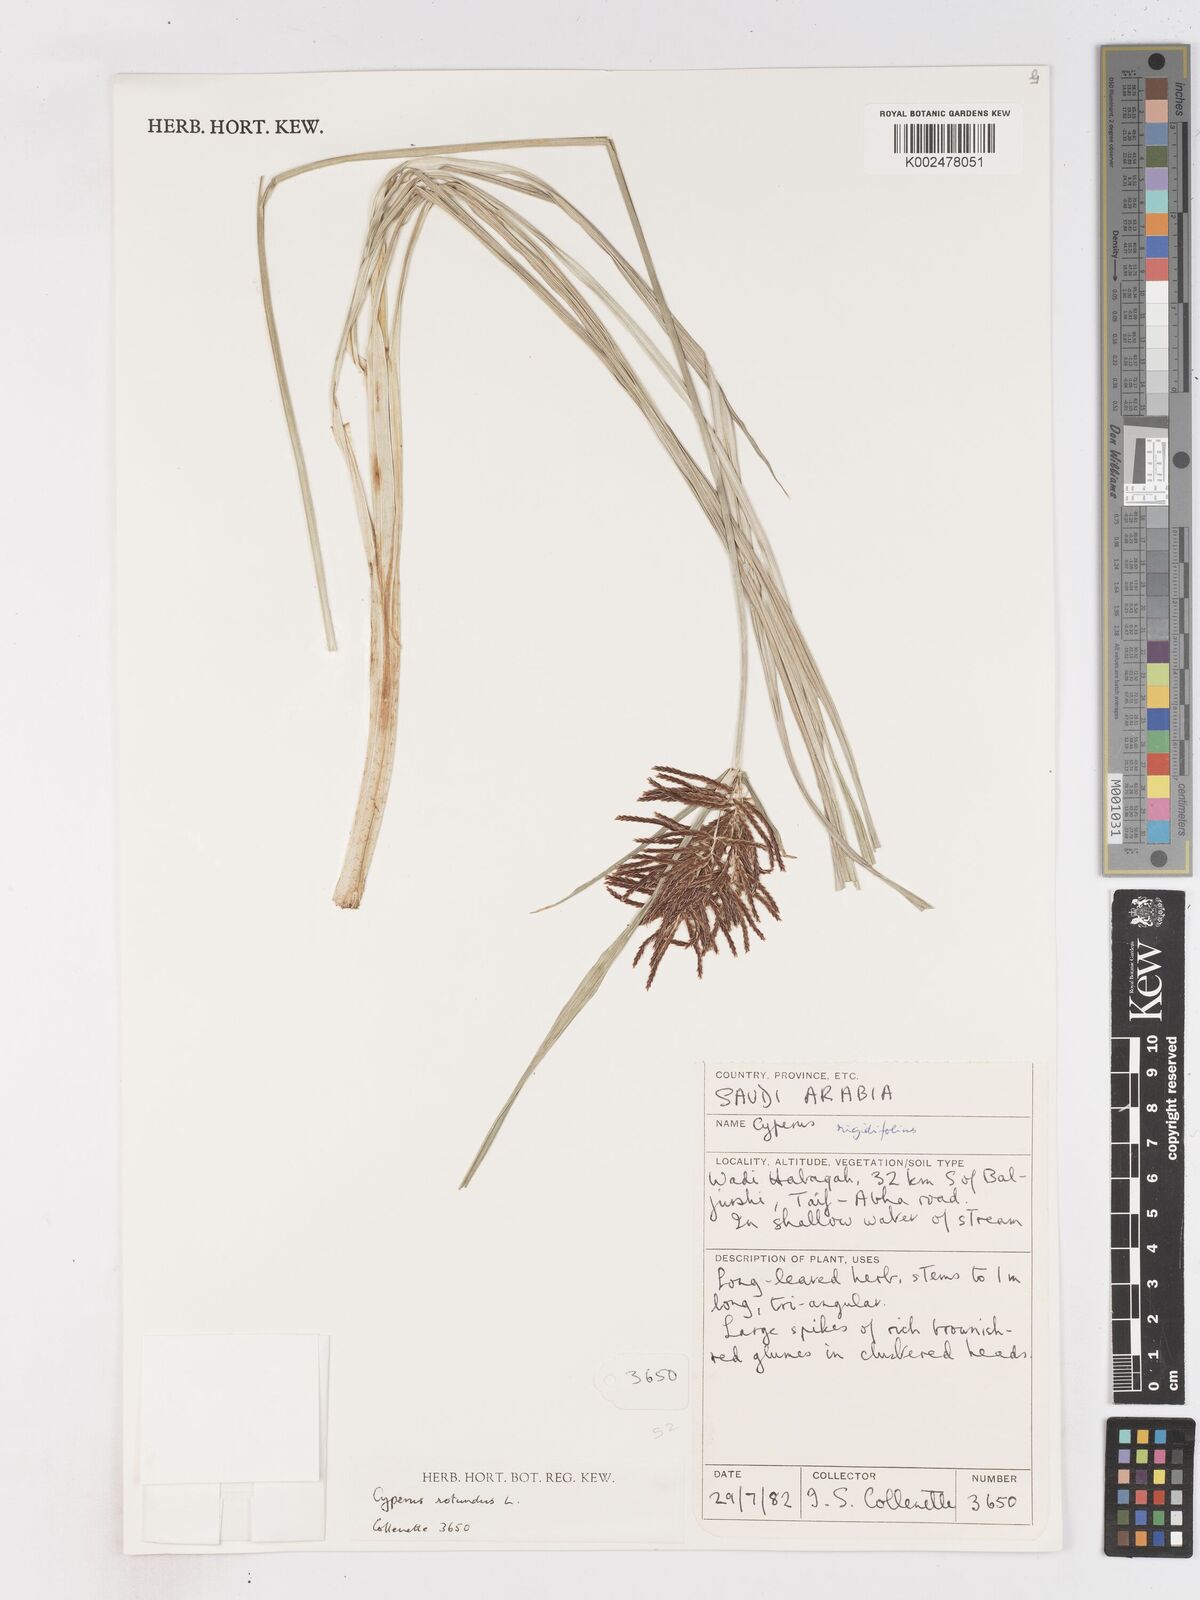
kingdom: Plantae
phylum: Tracheophyta
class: Liliopsida
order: Poales
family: Cyperaceae
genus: Cyperus
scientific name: Cyperus rotundus
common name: Nutgrass
